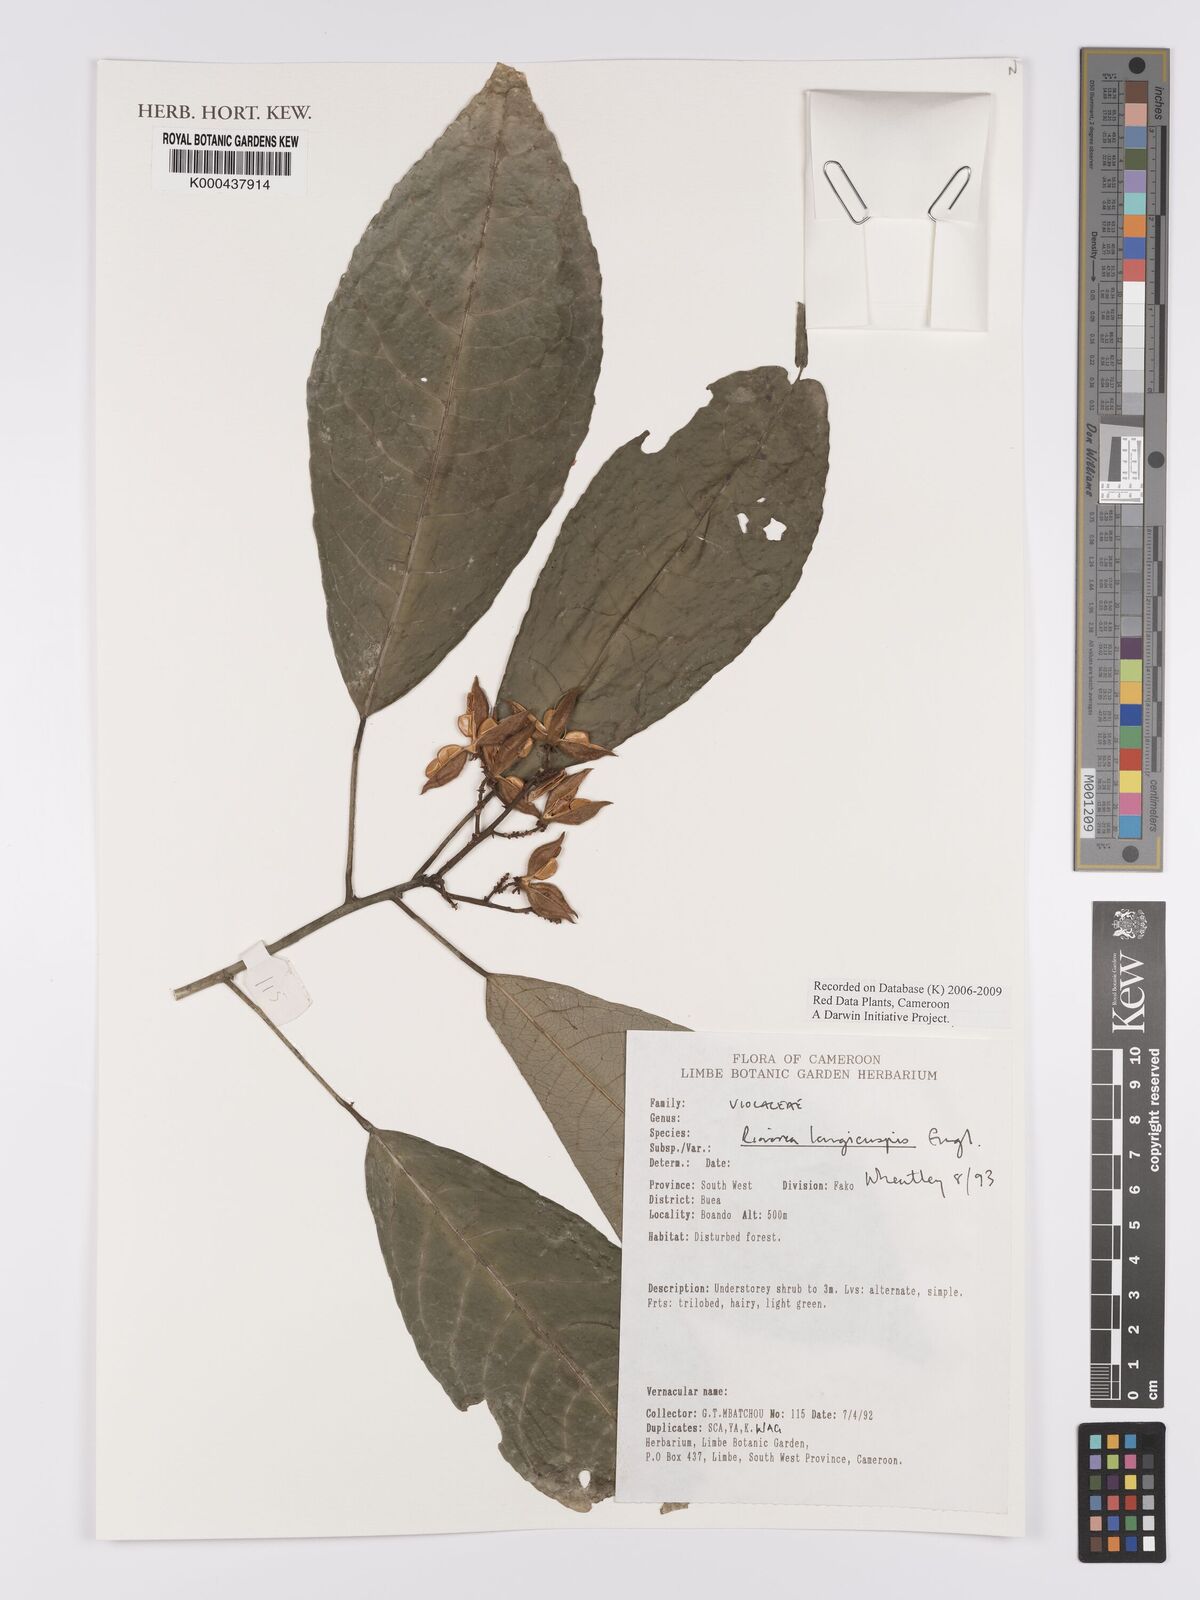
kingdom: Plantae
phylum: Tracheophyta
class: Magnoliopsida
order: Malpighiales
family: Violaceae
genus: Rinorea
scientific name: Rinorea welwitschii
